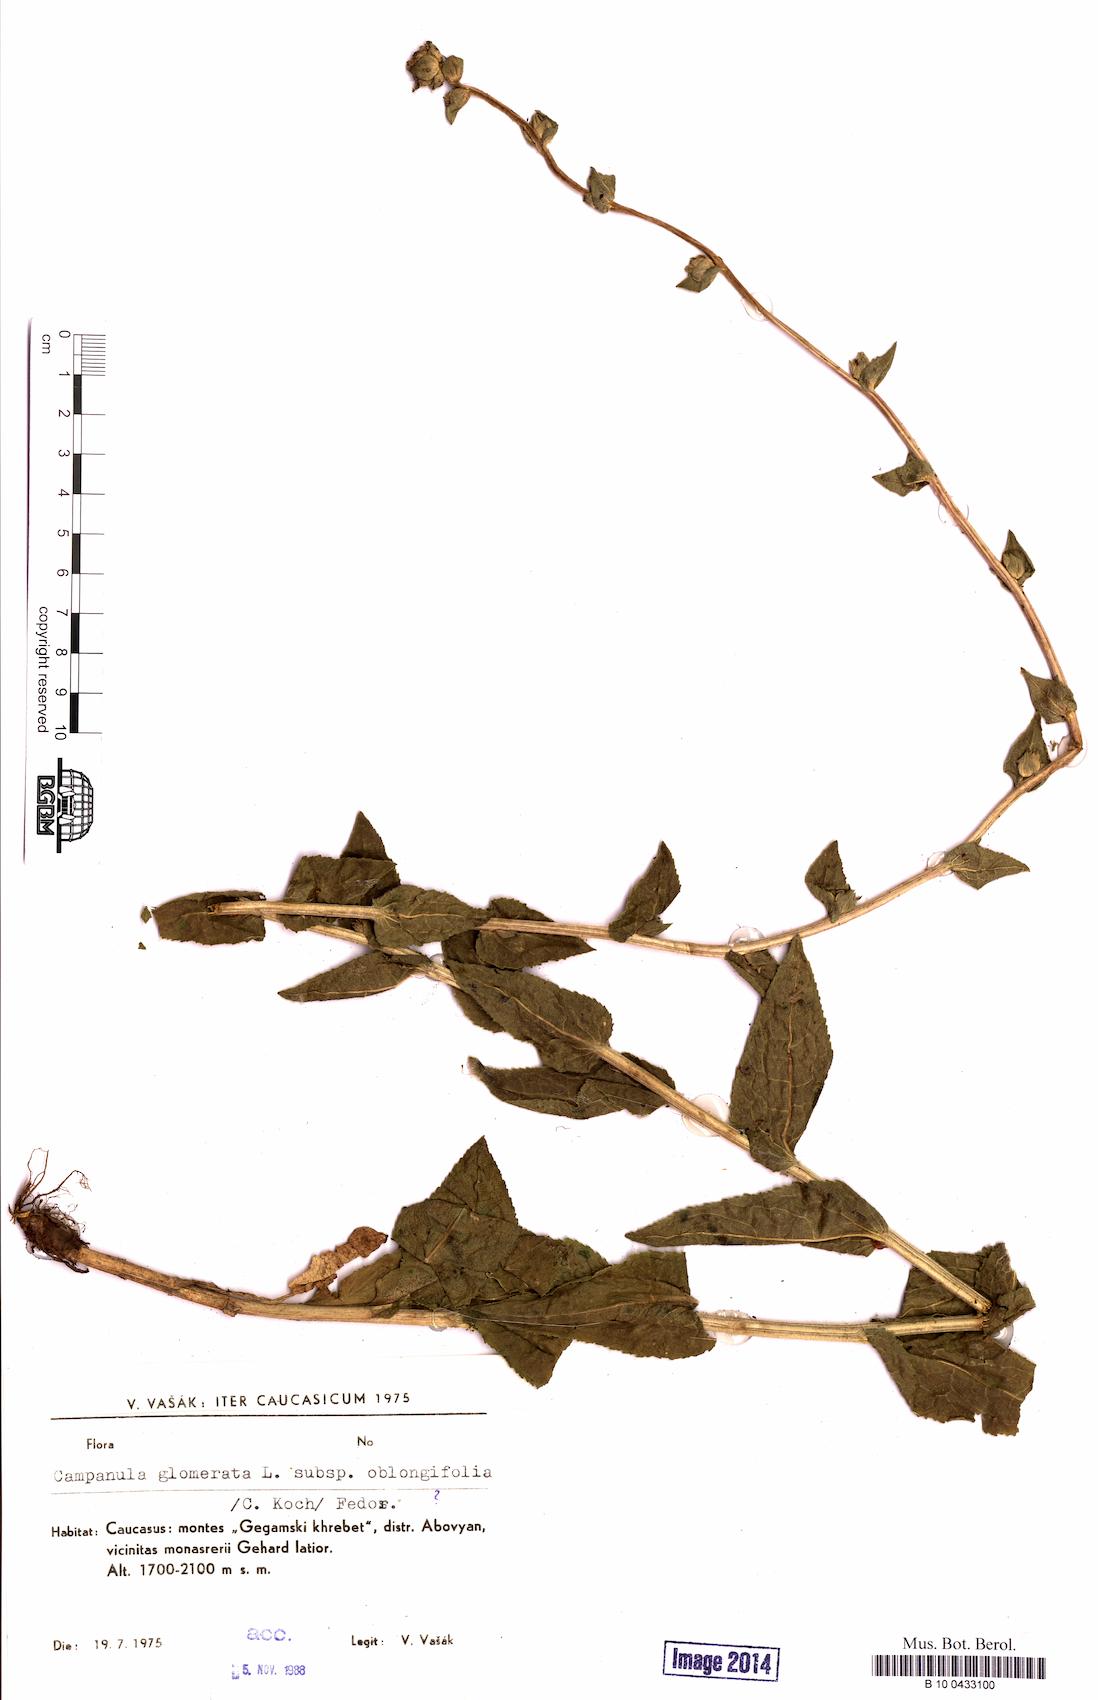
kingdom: Plantae
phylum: Tracheophyta
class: Magnoliopsida
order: Asterales
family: Campanulaceae
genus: Campanula
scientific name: Campanula glomerata
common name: Clustered bellflower
